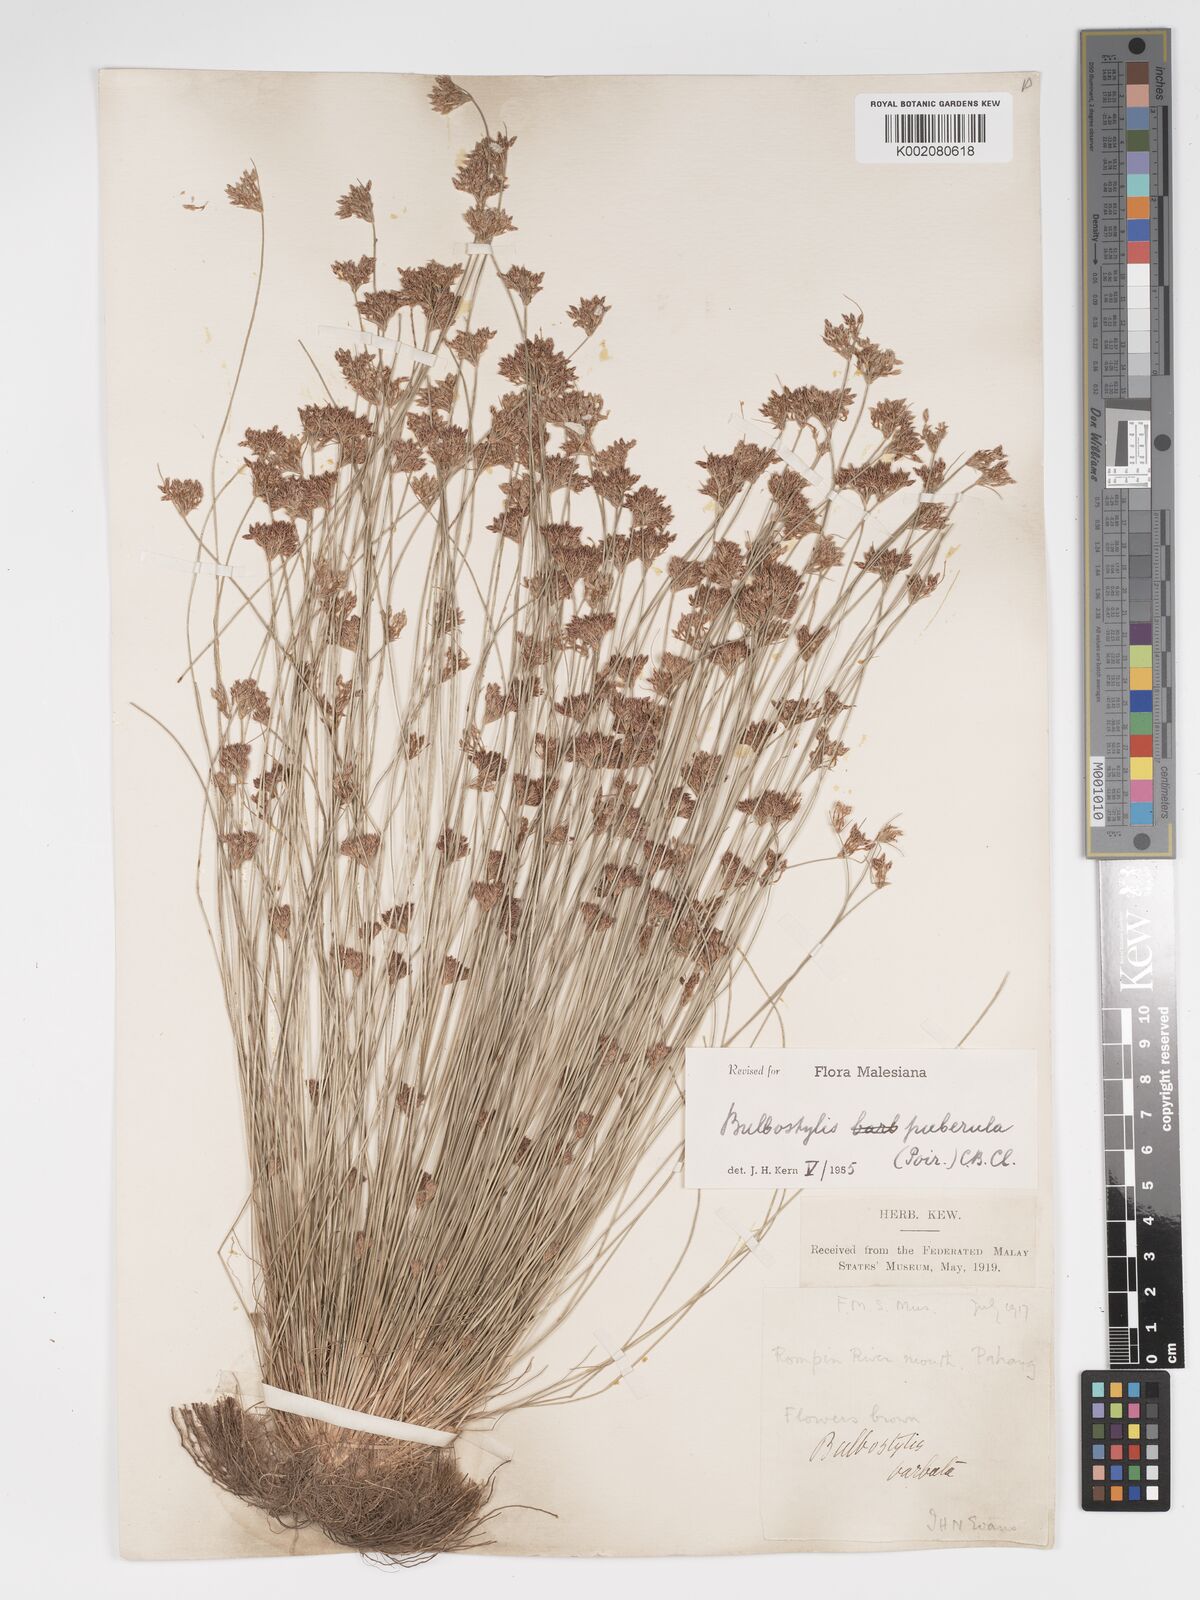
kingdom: Plantae
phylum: Tracheophyta
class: Liliopsida
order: Poales
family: Cyperaceae
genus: Bulbostylis
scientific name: Bulbostylis thouarsii
